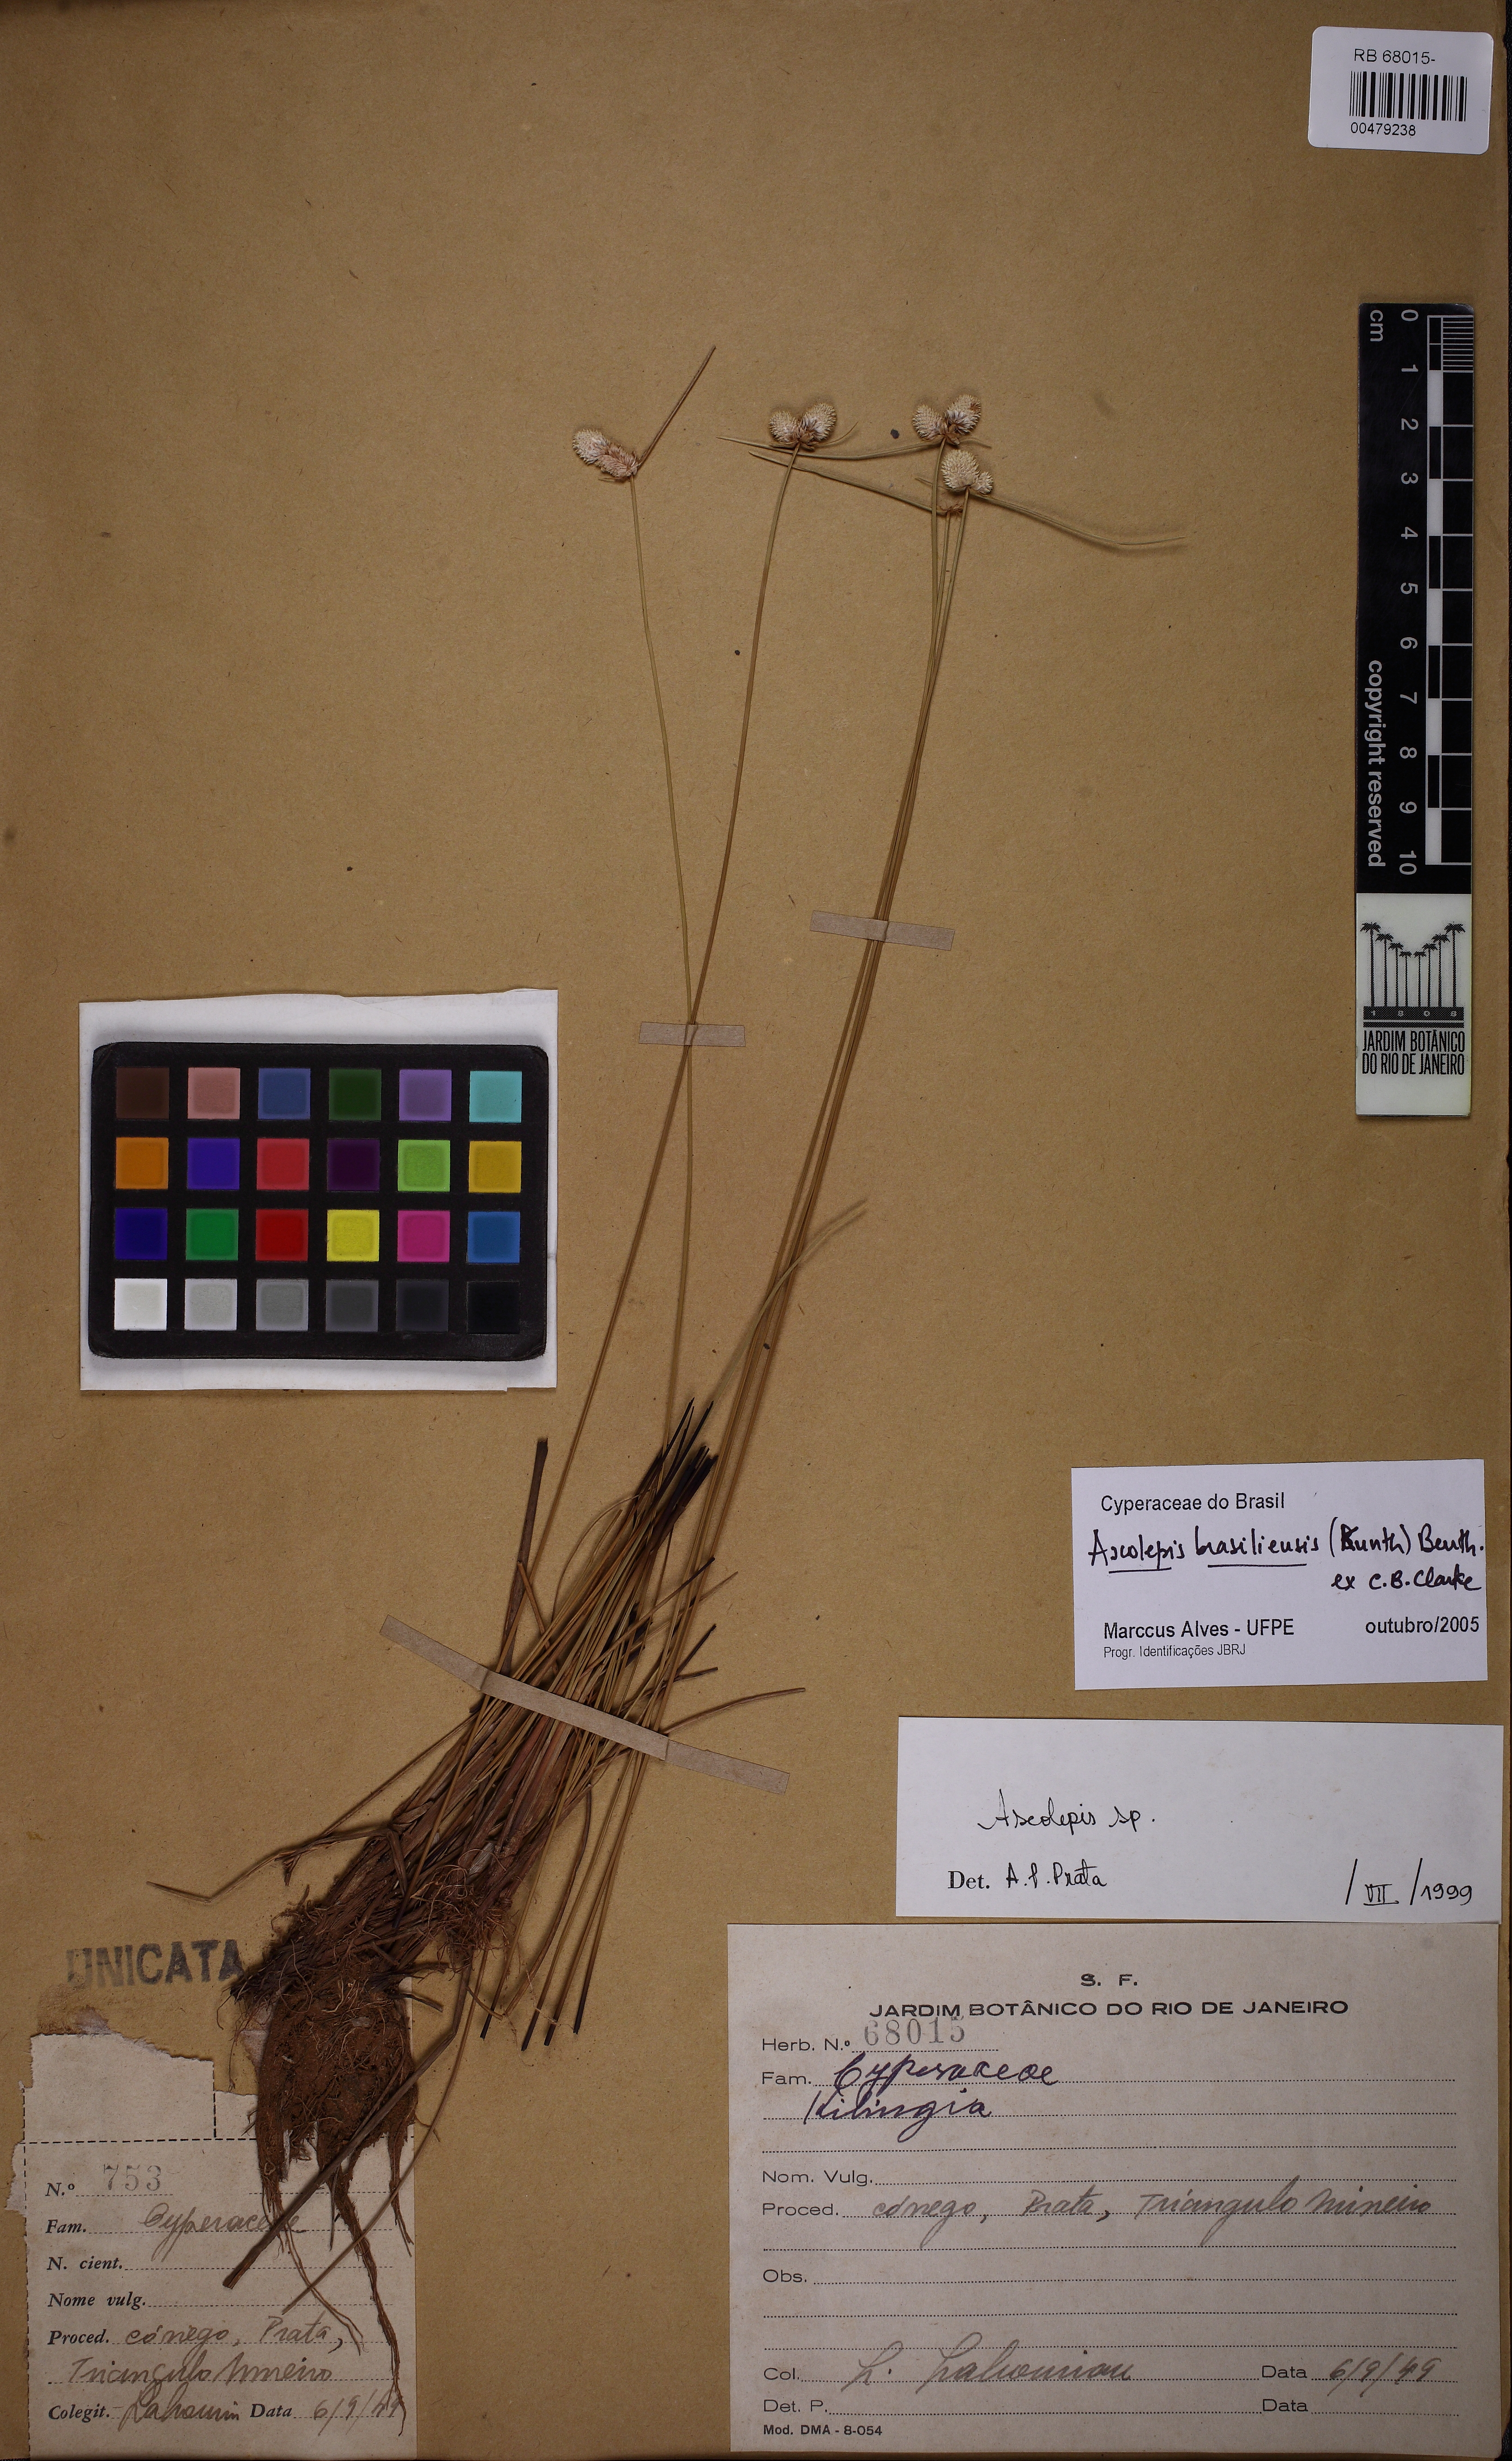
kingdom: Plantae
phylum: Tracheophyta
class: Liliopsida
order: Poales
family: Cyperaceae
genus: Cyperus
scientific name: Cyperus brasiliensis
